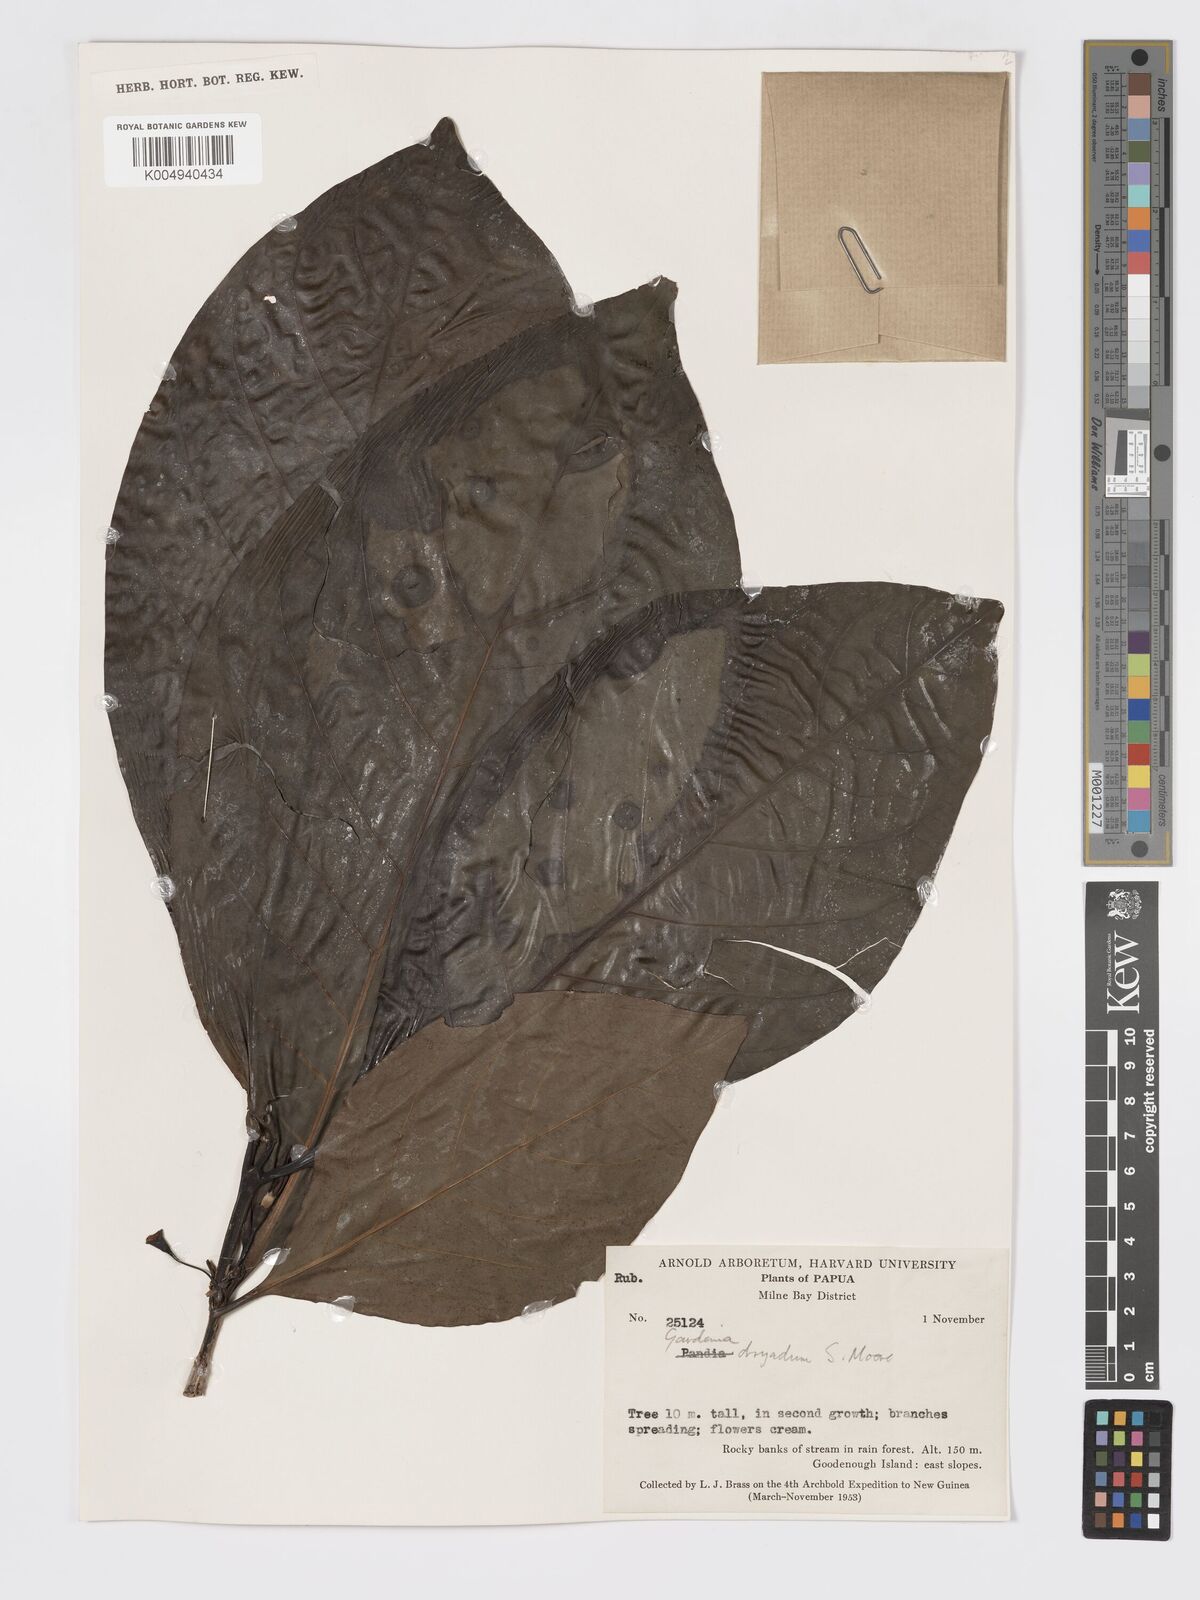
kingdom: Plantae
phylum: Tracheophyta
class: Magnoliopsida
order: Gentianales
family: Rubiaceae
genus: Atractocarpus
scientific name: Atractocarpus macarthurii
